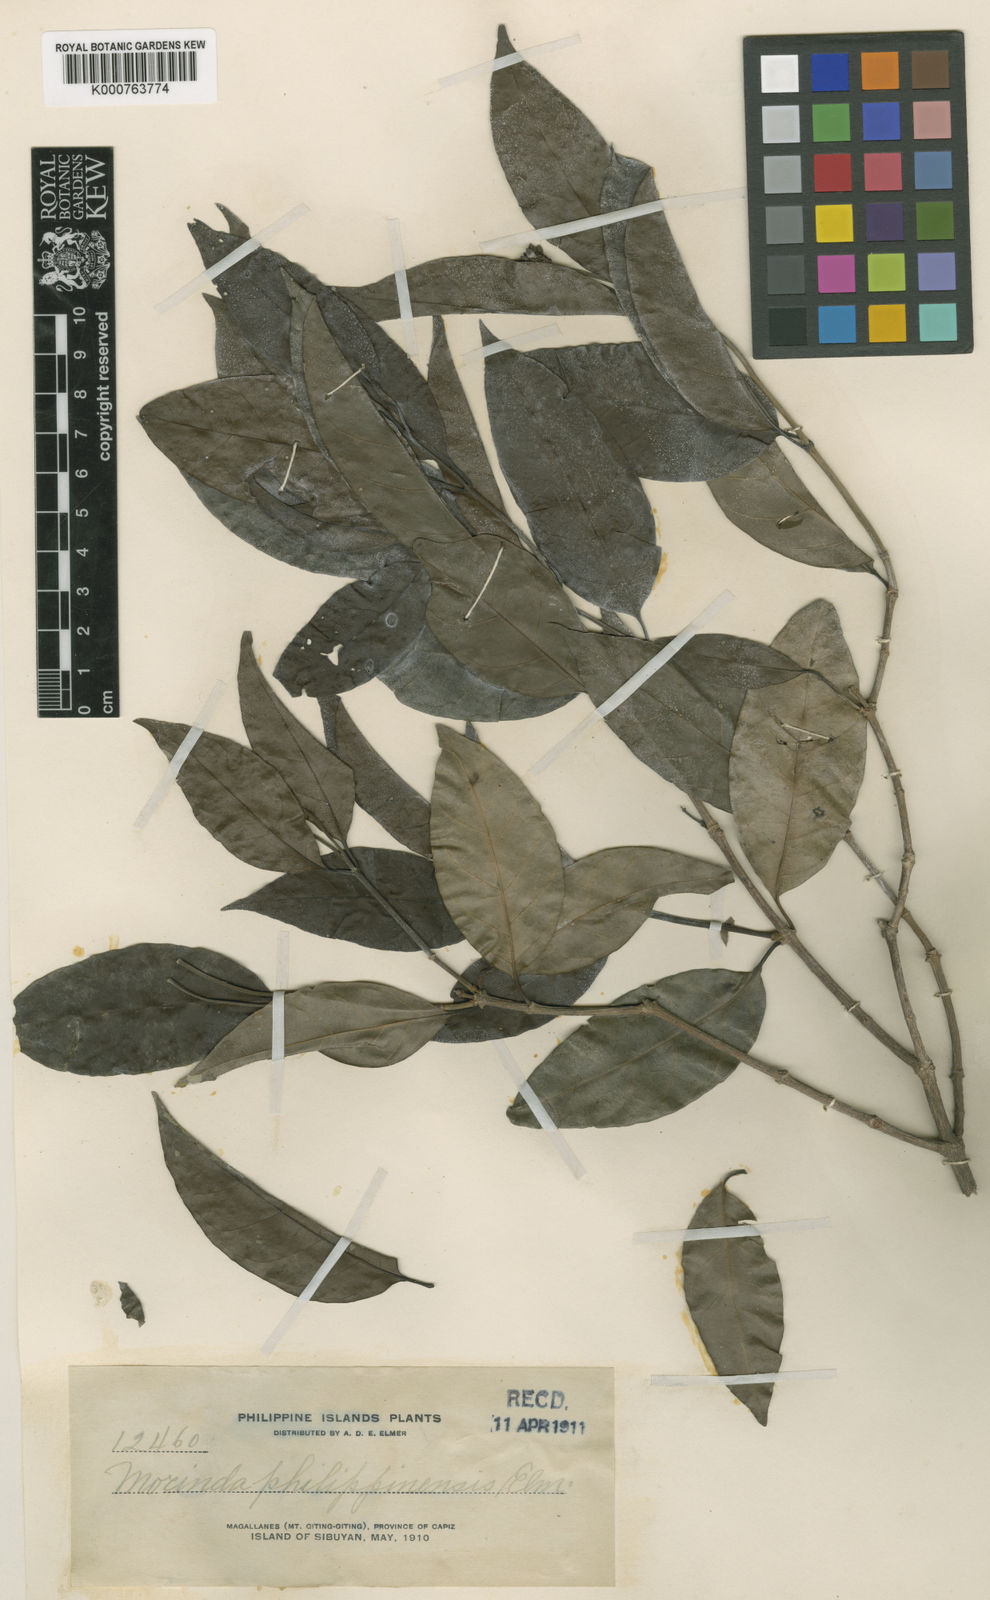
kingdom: Plantae
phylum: Tracheophyta
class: Magnoliopsida
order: Gentianales
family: Rubiaceae
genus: Gynochthodes
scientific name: Gynochthodes alejandroi
